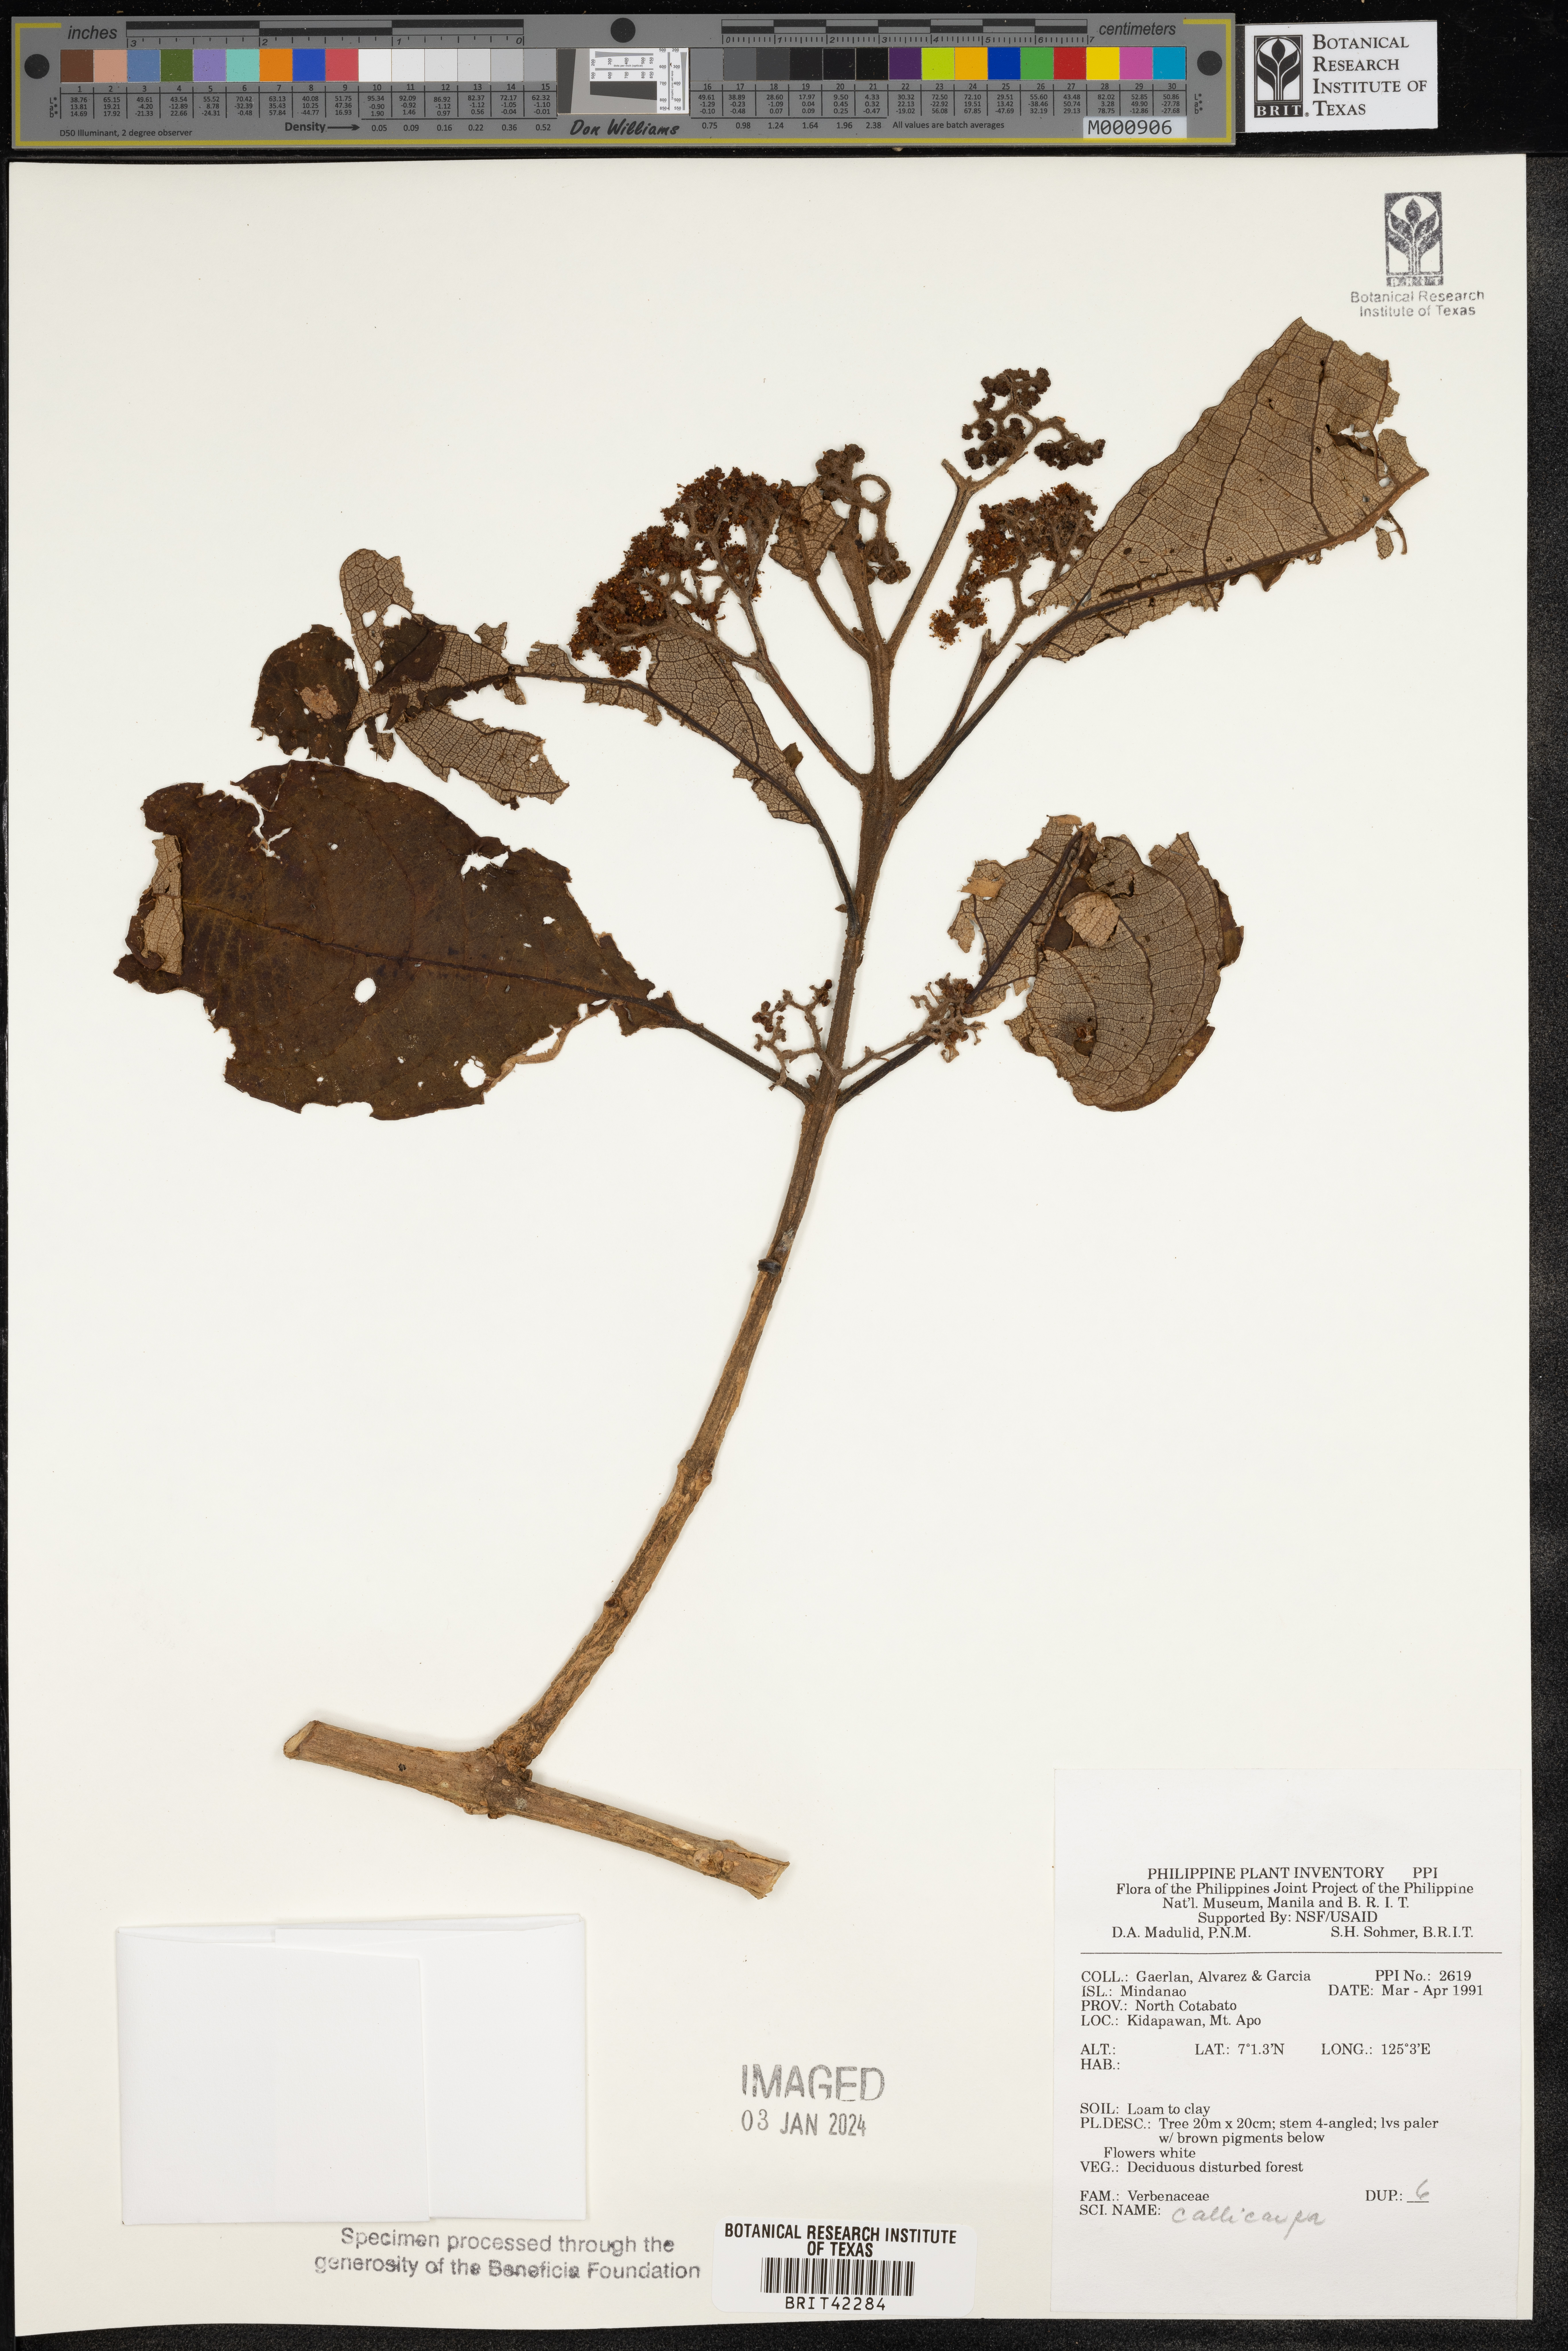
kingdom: Plantae
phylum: Tracheophyta
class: Magnoliopsida
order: Lamiales
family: Lamiaceae
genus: Callicarpa
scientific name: Callicarpa
